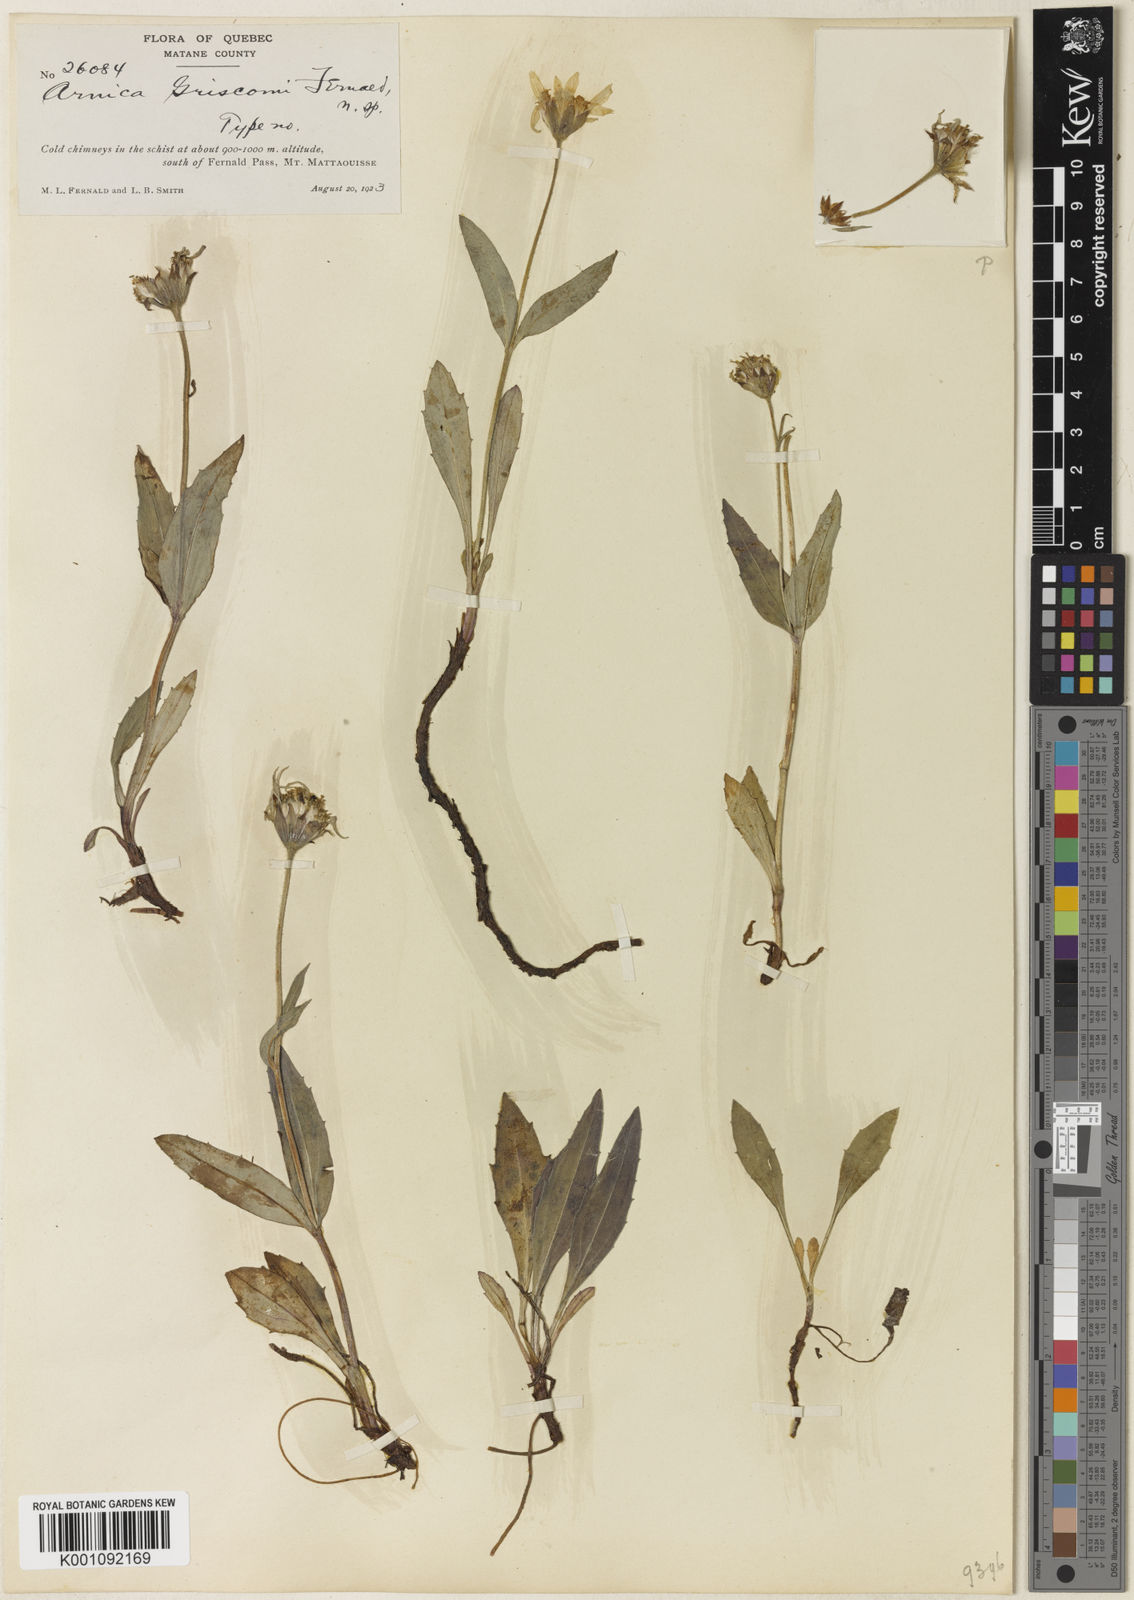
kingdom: Plantae
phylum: Tracheophyta
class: Magnoliopsida
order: Asterales
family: Asteraceae
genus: Arnica
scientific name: Arnica griscomii
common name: Snow arnica
